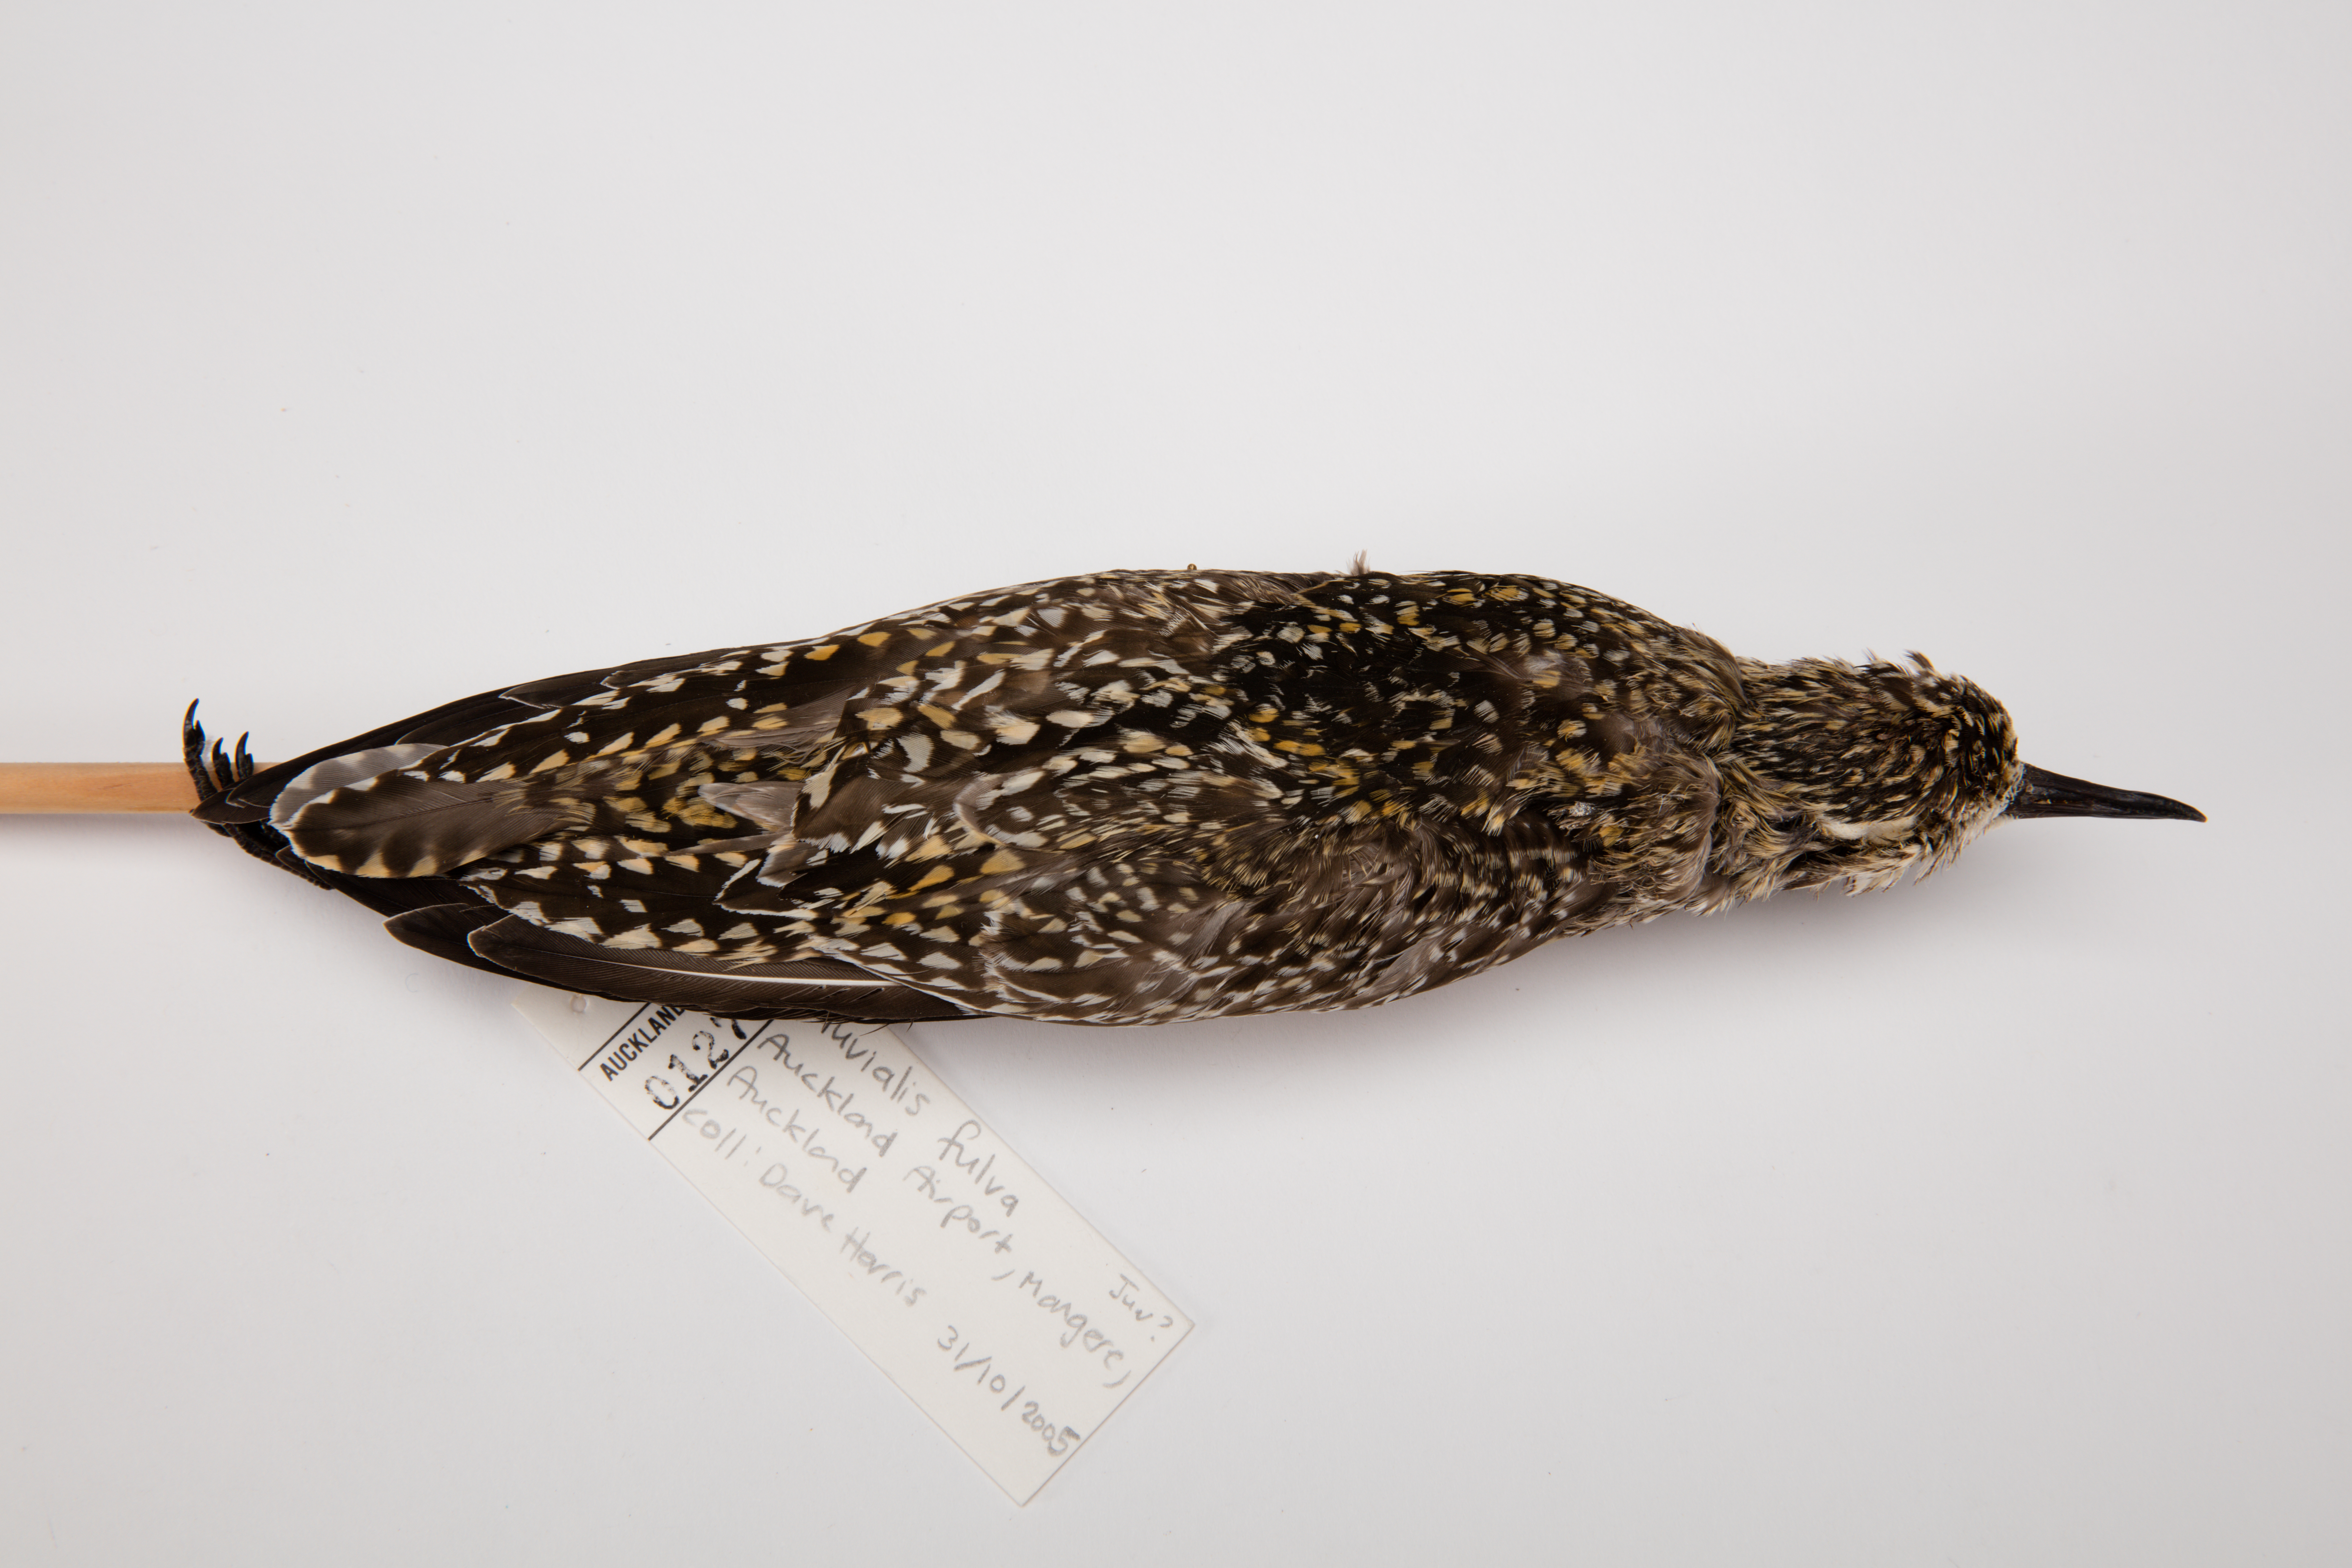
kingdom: Animalia
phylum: Chordata
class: Aves
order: Charadriiformes
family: Charadriidae
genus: Pluvialis
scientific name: Pluvialis fulva
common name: Pacific golden plover
